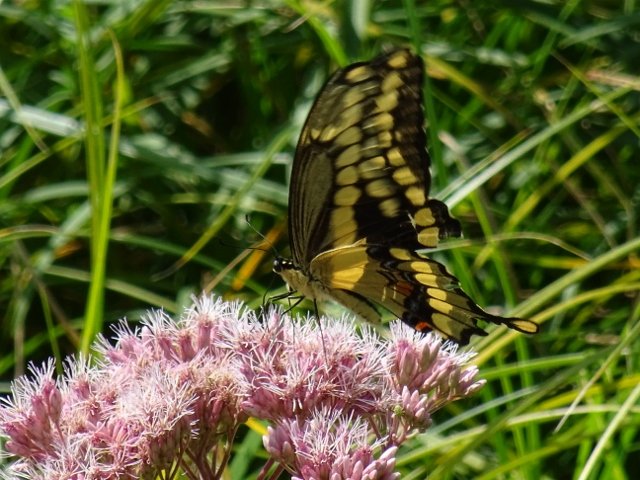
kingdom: Animalia
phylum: Arthropoda
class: Insecta
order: Lepidoptera
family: Papilionidae
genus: Papilio
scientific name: Papilio cresphontes
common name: Eastern Giant Swallowtail
